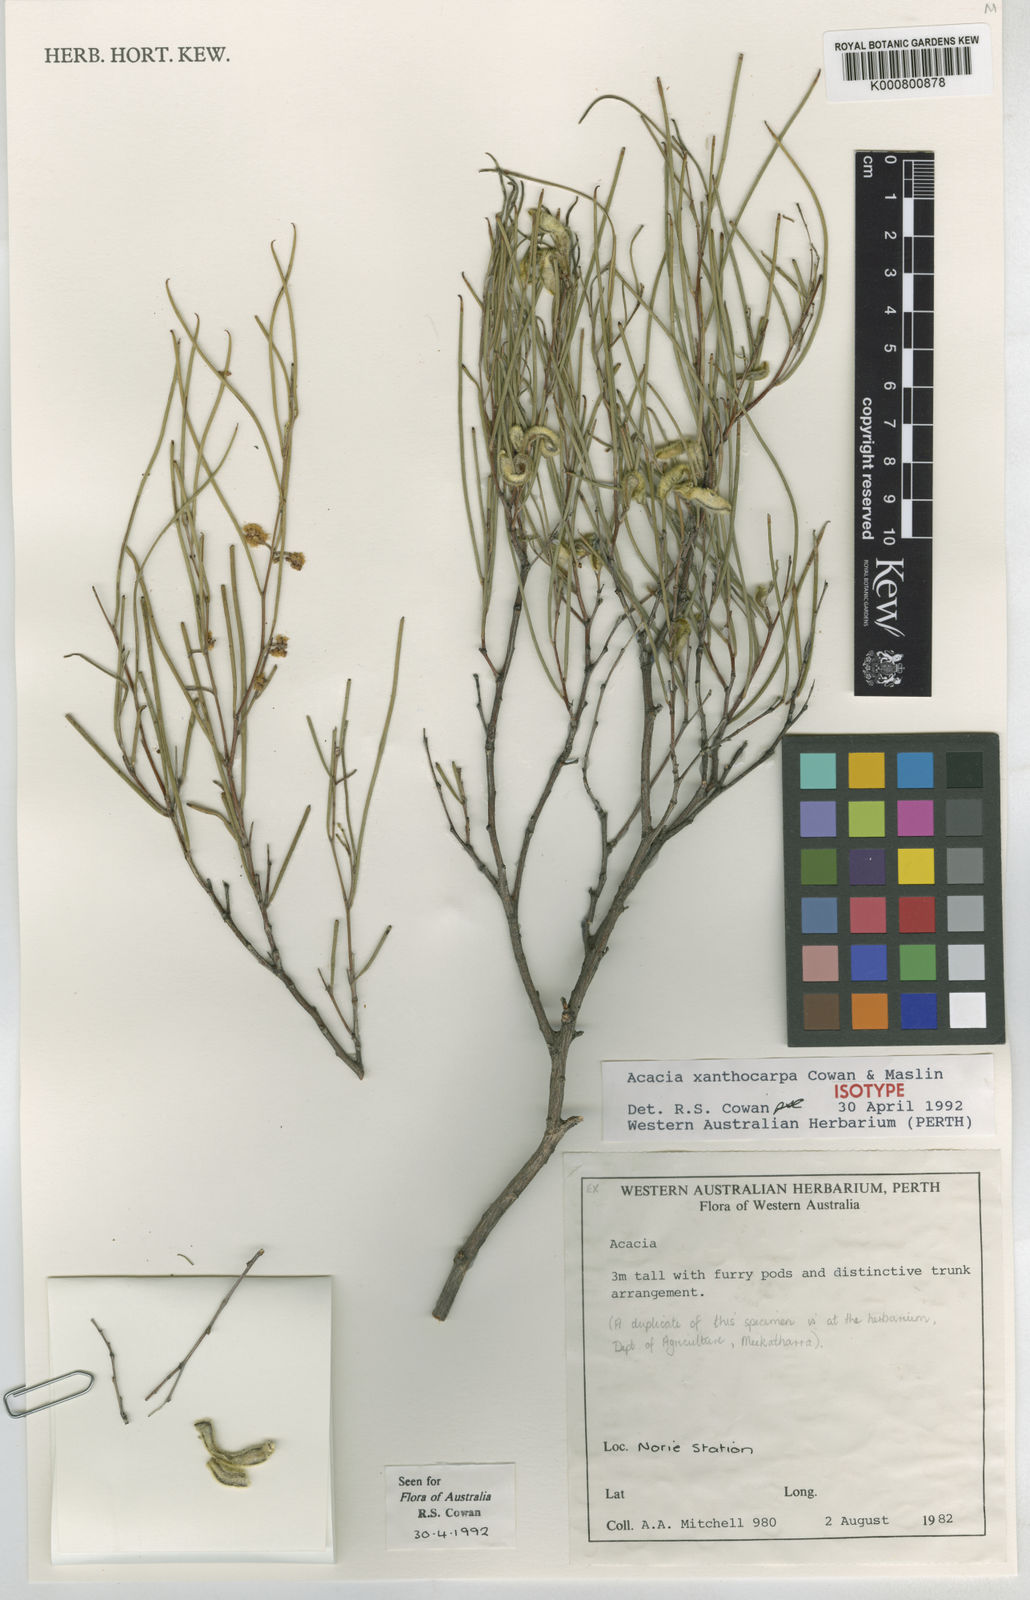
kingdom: Plantae
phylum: Tracheophyta
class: Magnoliopsida
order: Fabales
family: Fabaceae
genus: Acacia
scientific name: Acacia xanthocarpa
